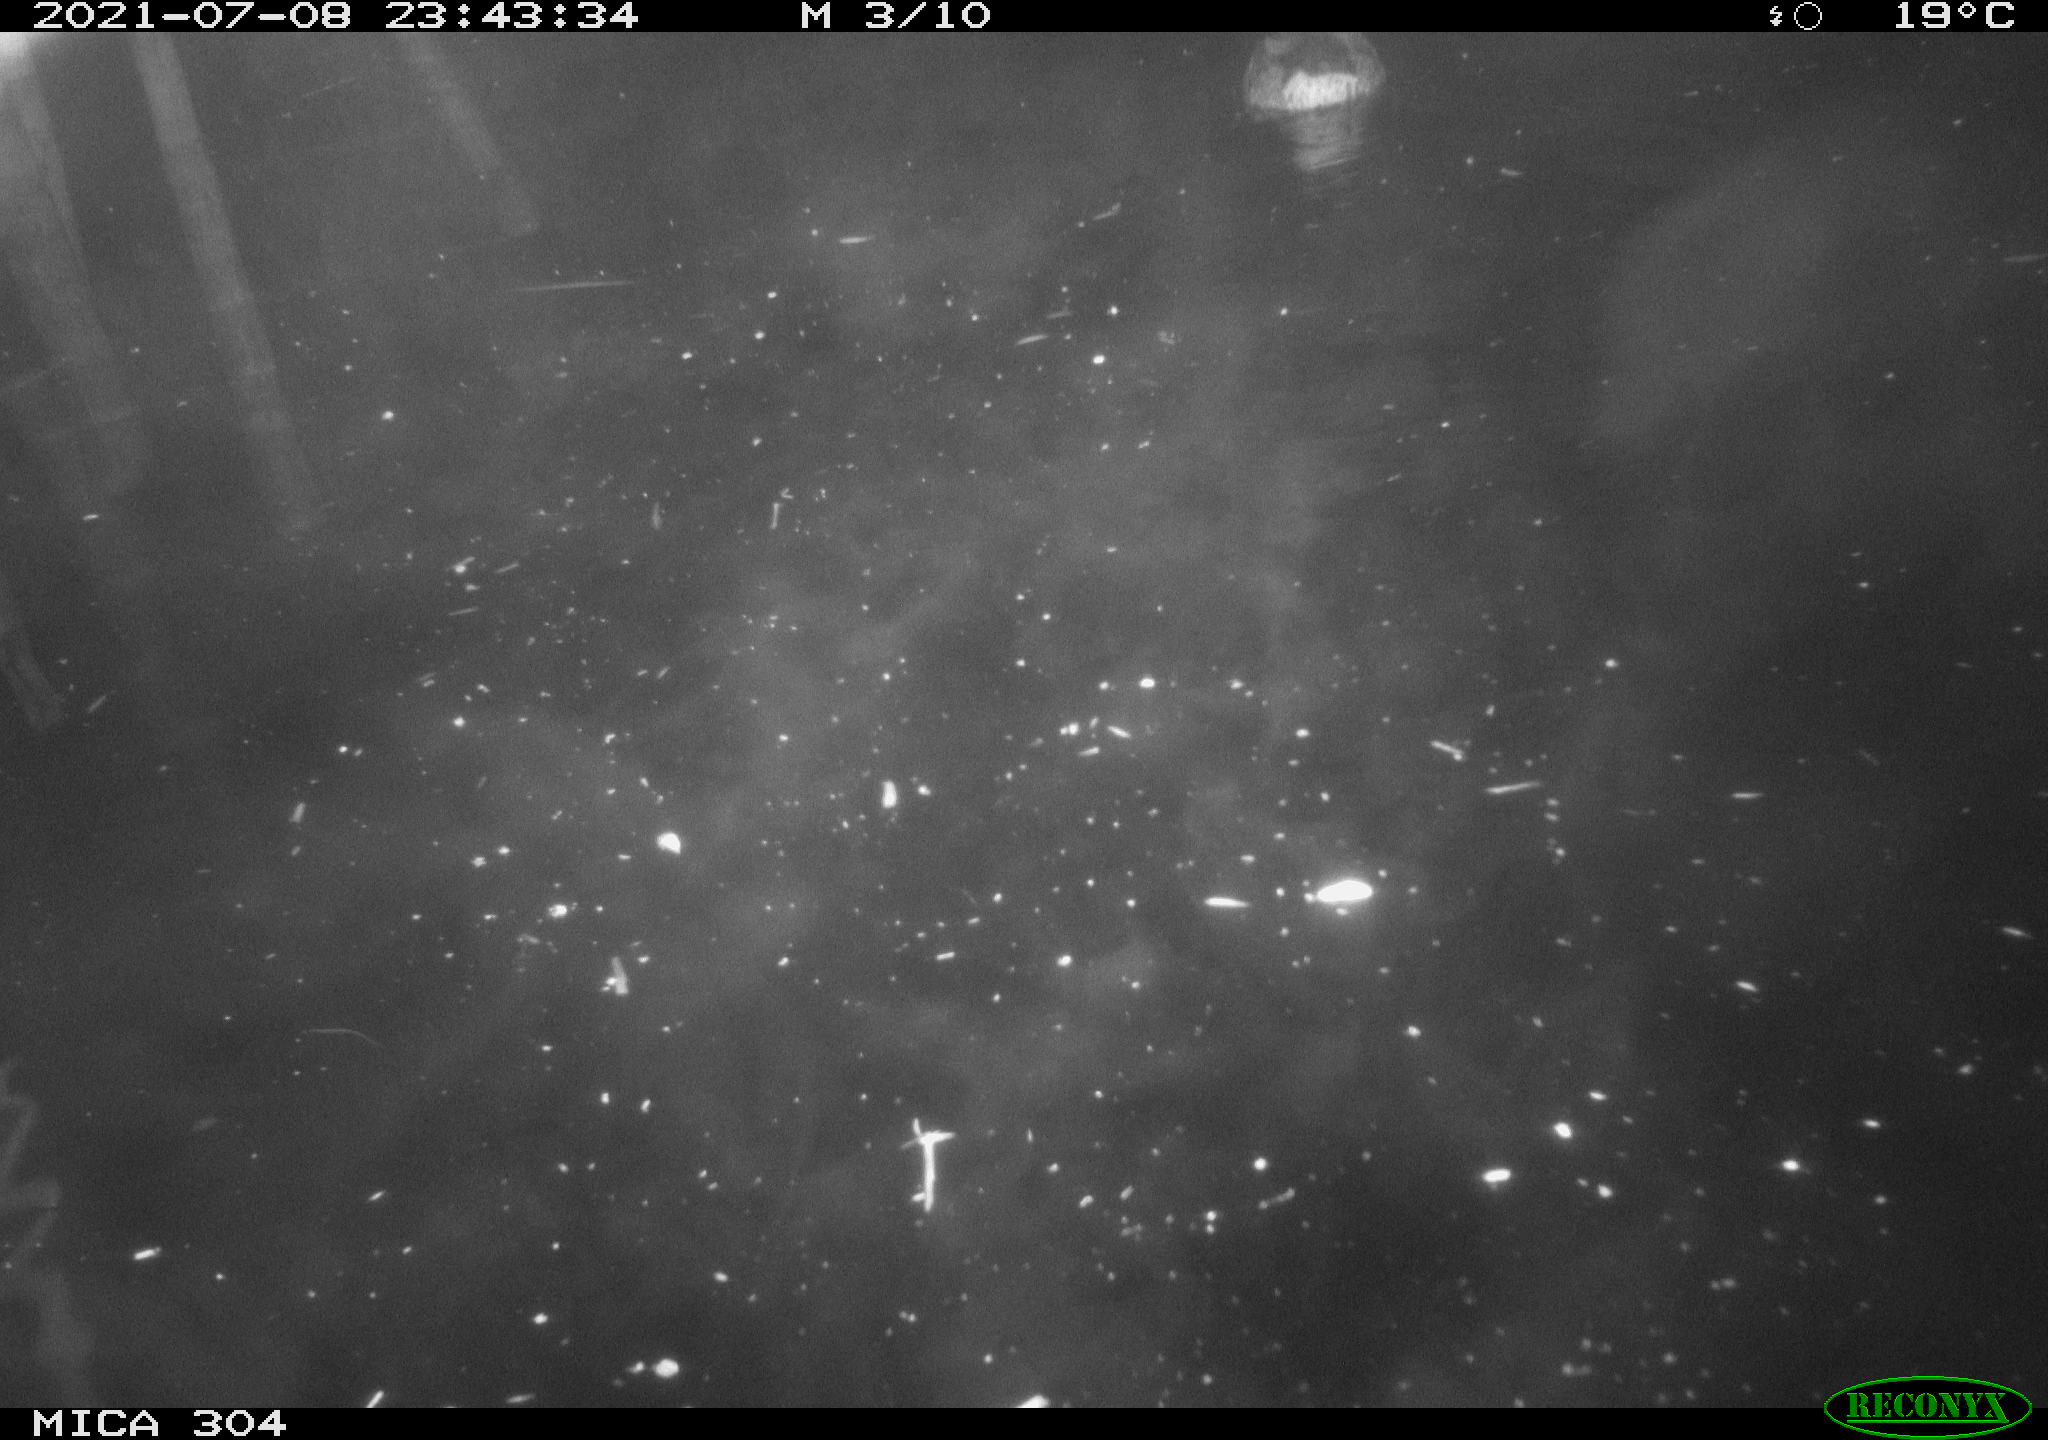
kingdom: Animalia
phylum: Chordata
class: Aves
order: Anseriformes
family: Anatidae
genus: Anas
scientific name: Anas platyrhynchos
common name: Mallard
